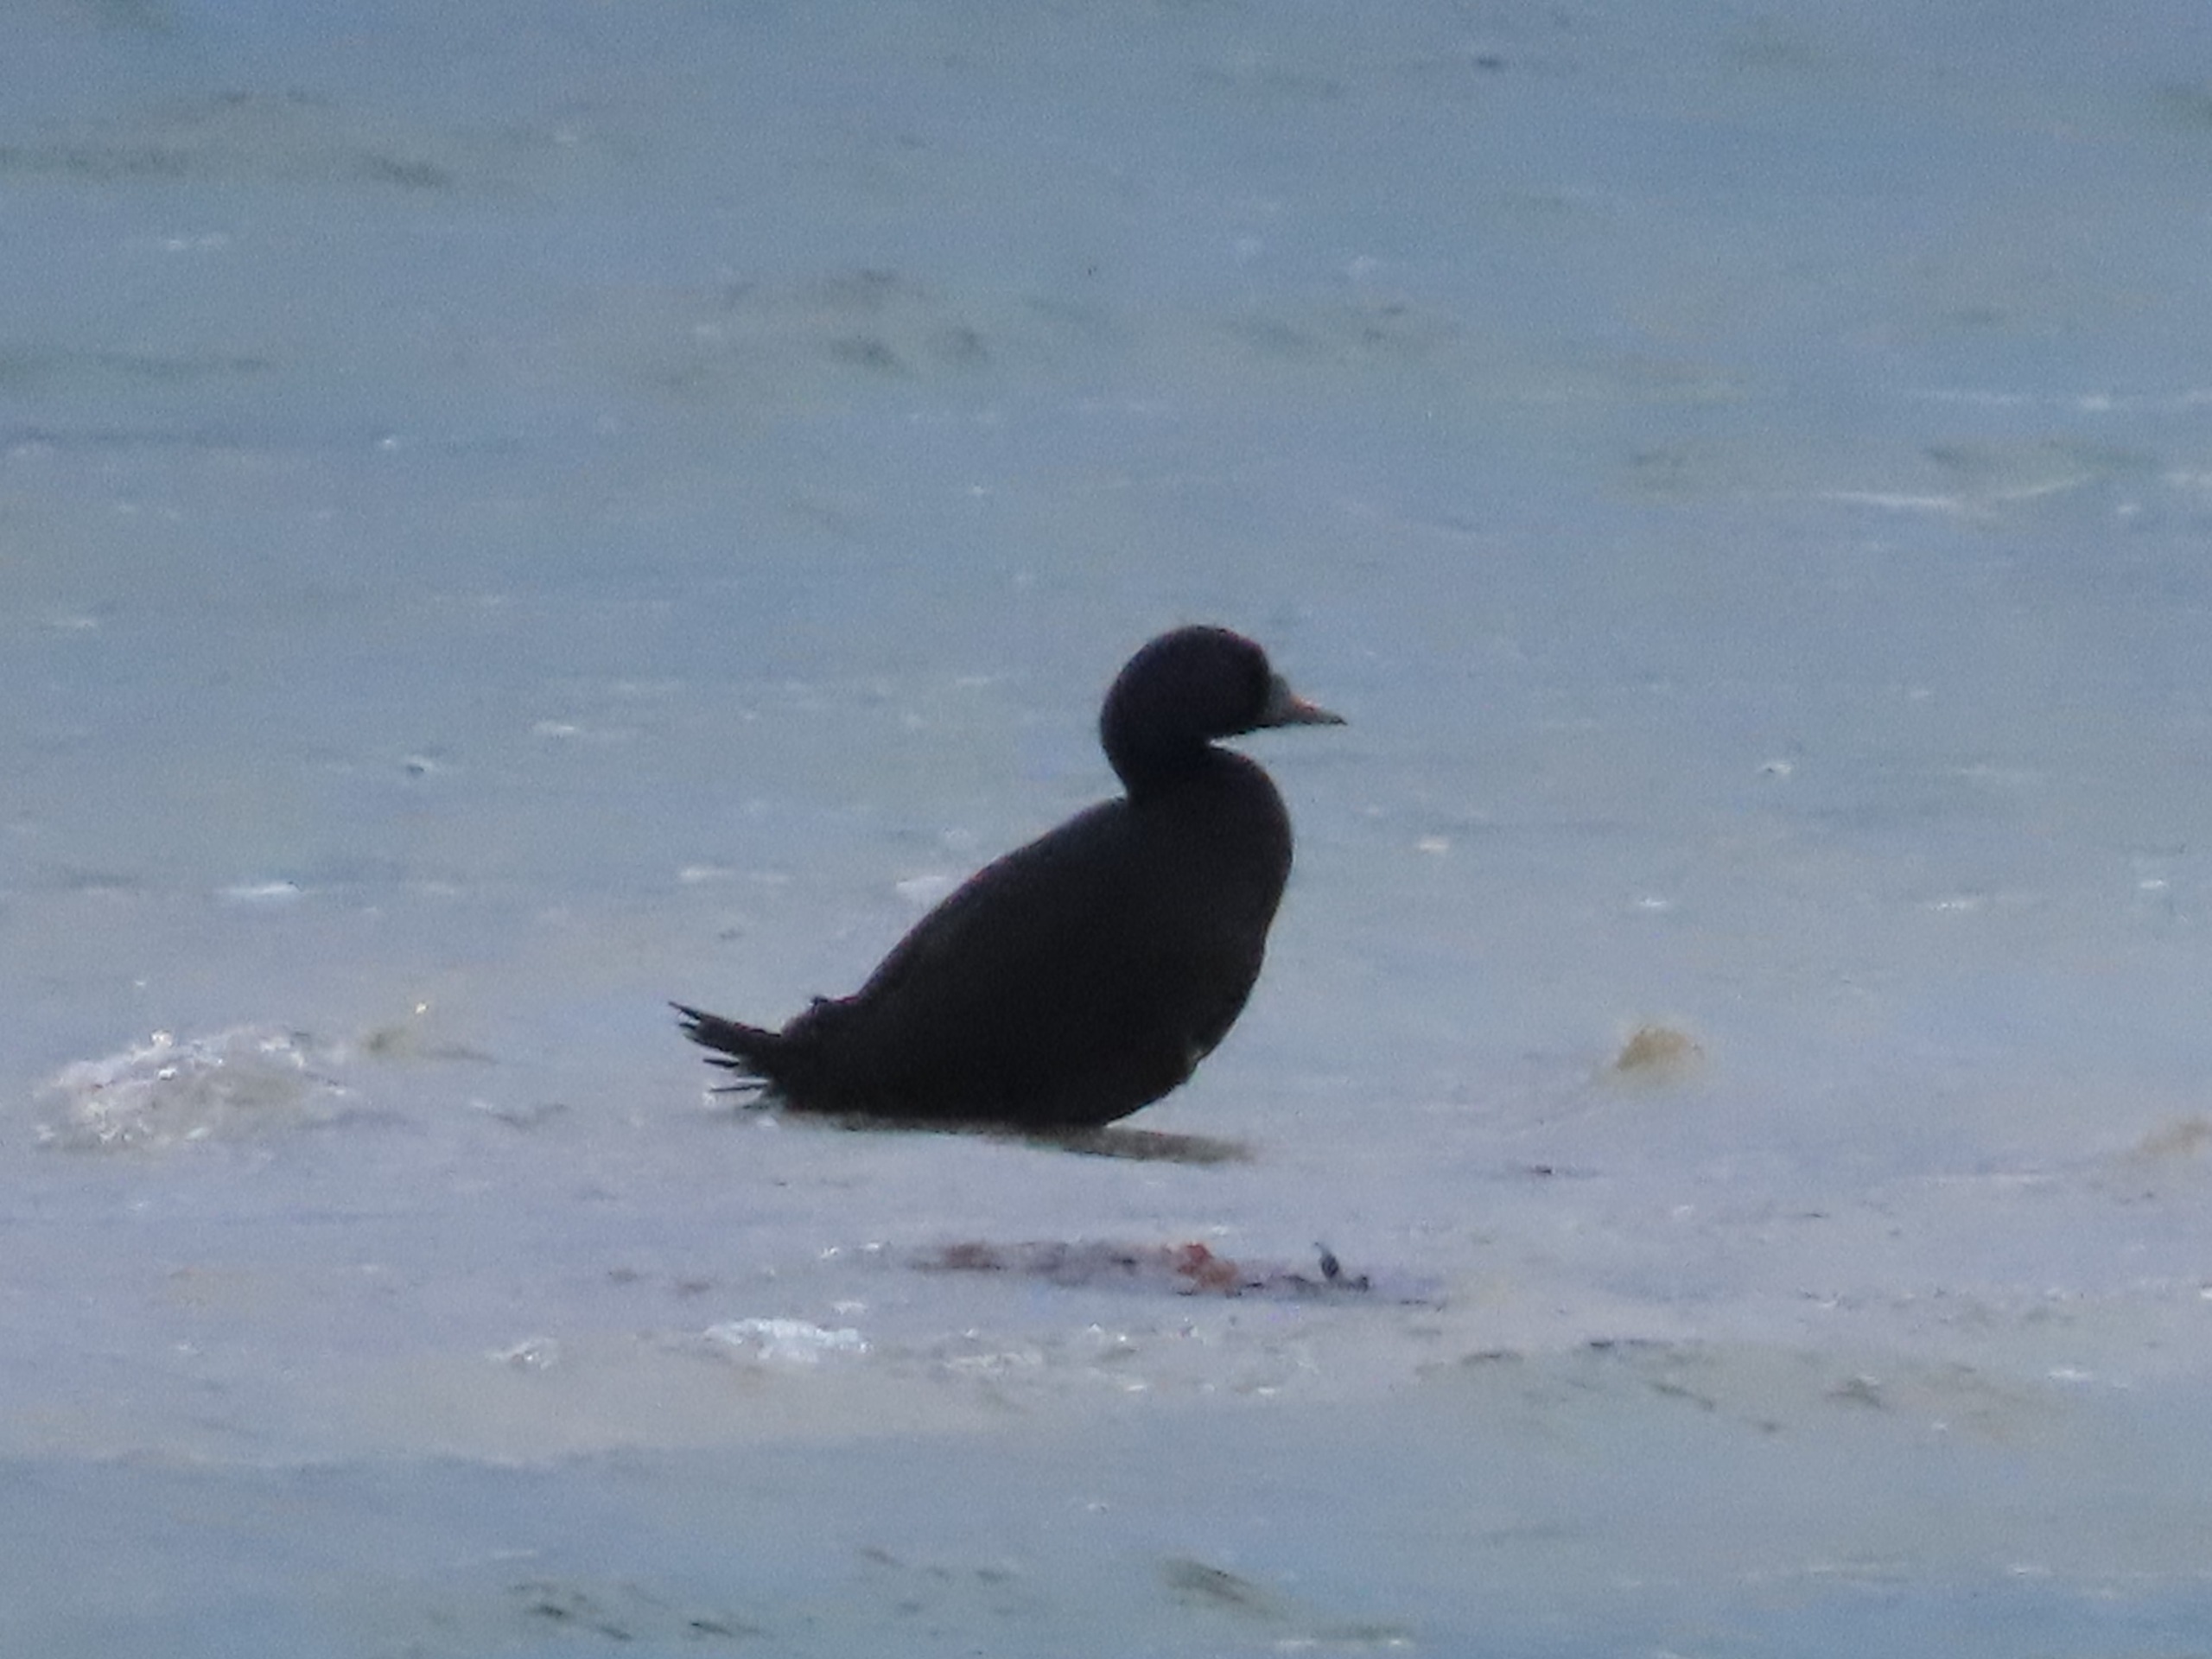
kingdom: Animalia
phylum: Chordata
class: Aves
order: Anseriformes
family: Anatidae
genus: Melanitta
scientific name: Melanitta nigra
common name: Sortand
